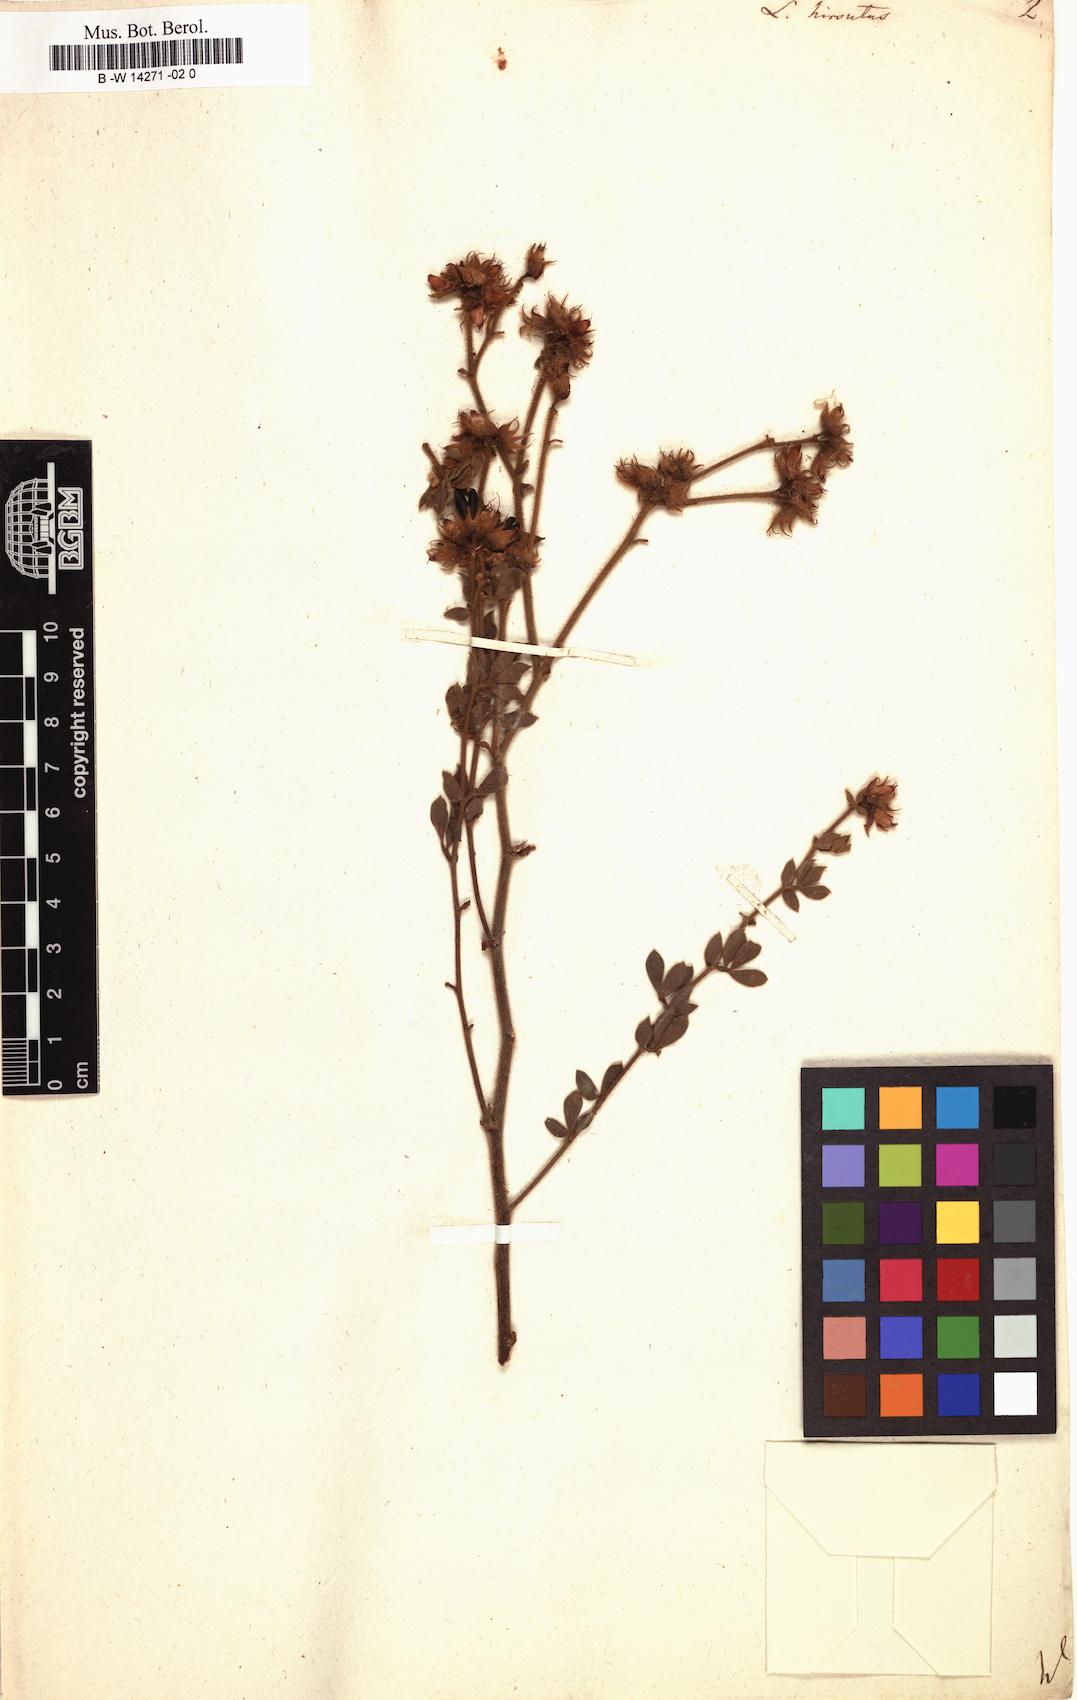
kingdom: Plantae
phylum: Tracheophyta
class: Magnoliopsida
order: Fabales
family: Fabaceae
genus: Lotus
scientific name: Lotus hirsutus
